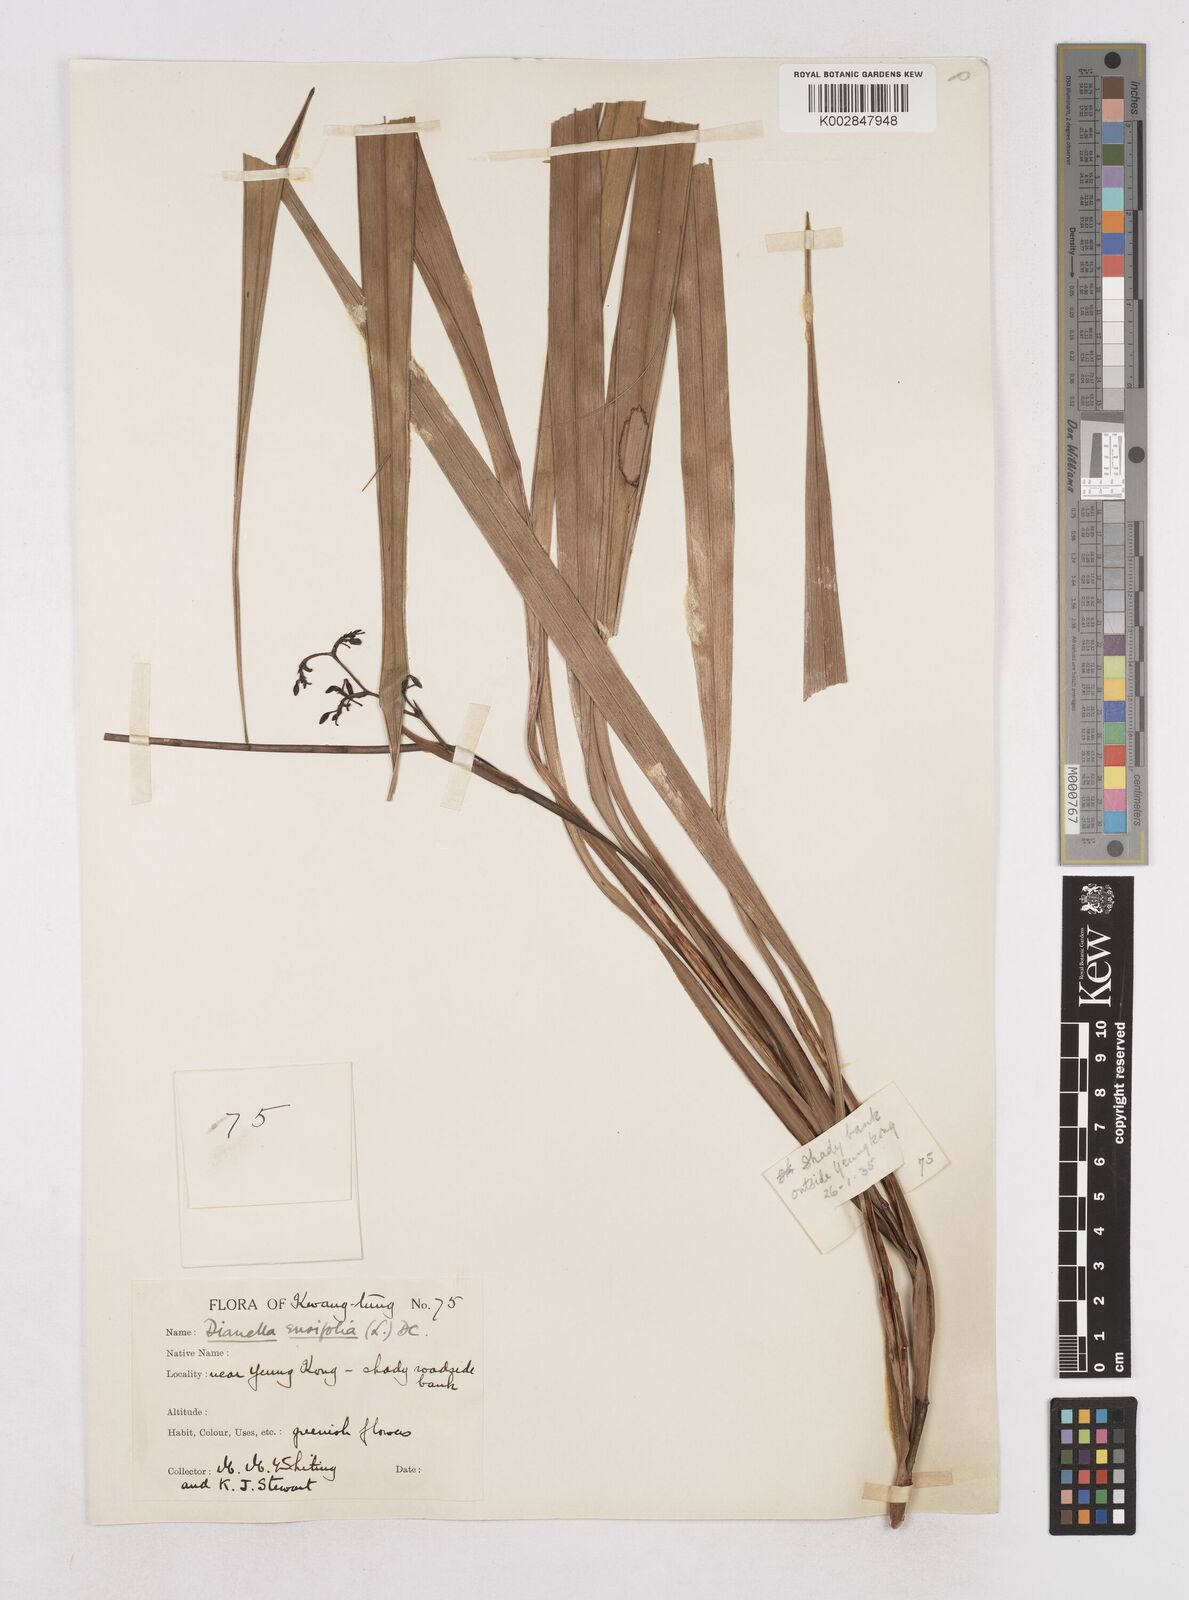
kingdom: Plantae
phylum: Tracheophyta
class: Liliopsida
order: Asparagales
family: Asphodelaceae
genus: Dianella
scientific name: Dianella ensifolia
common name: New zealand lilyplant
